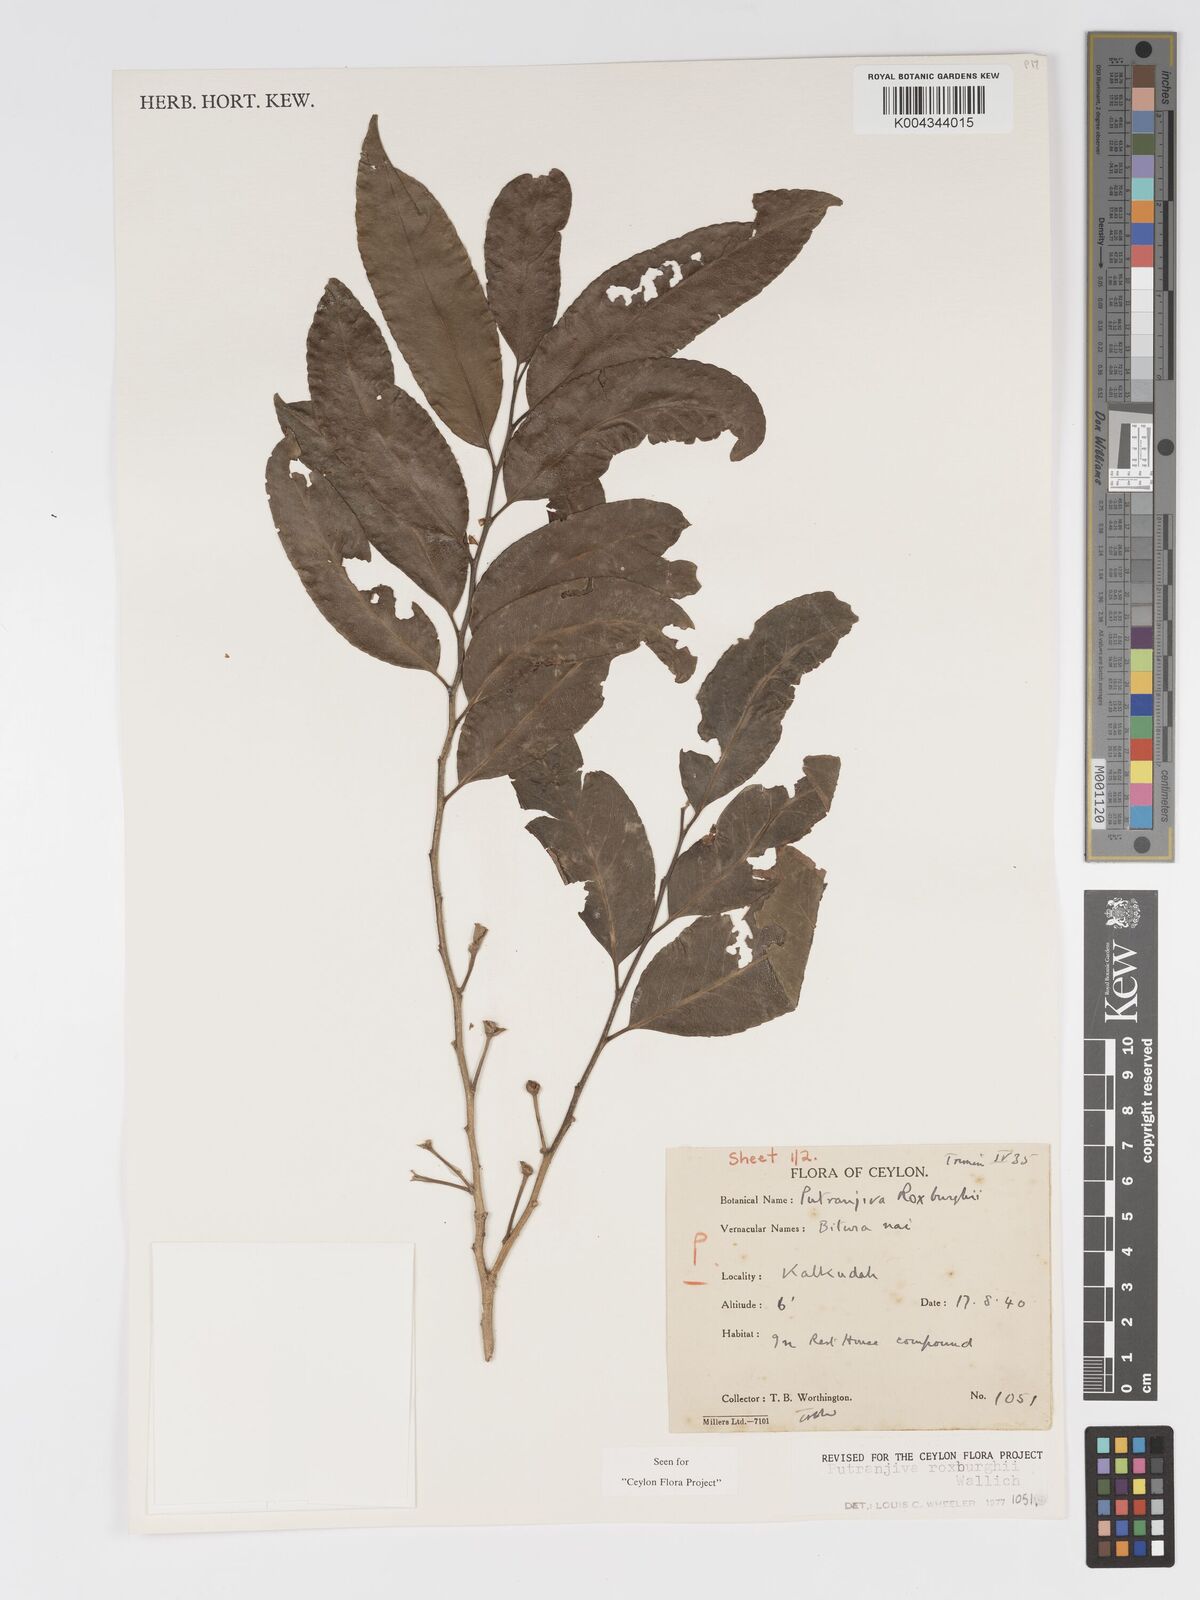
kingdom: Plantae
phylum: Tracheophyta
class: Magnoliopsida
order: Malpighiales
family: Putranjivaceae
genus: Putranjiva
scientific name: Putranjiva roxburghii
